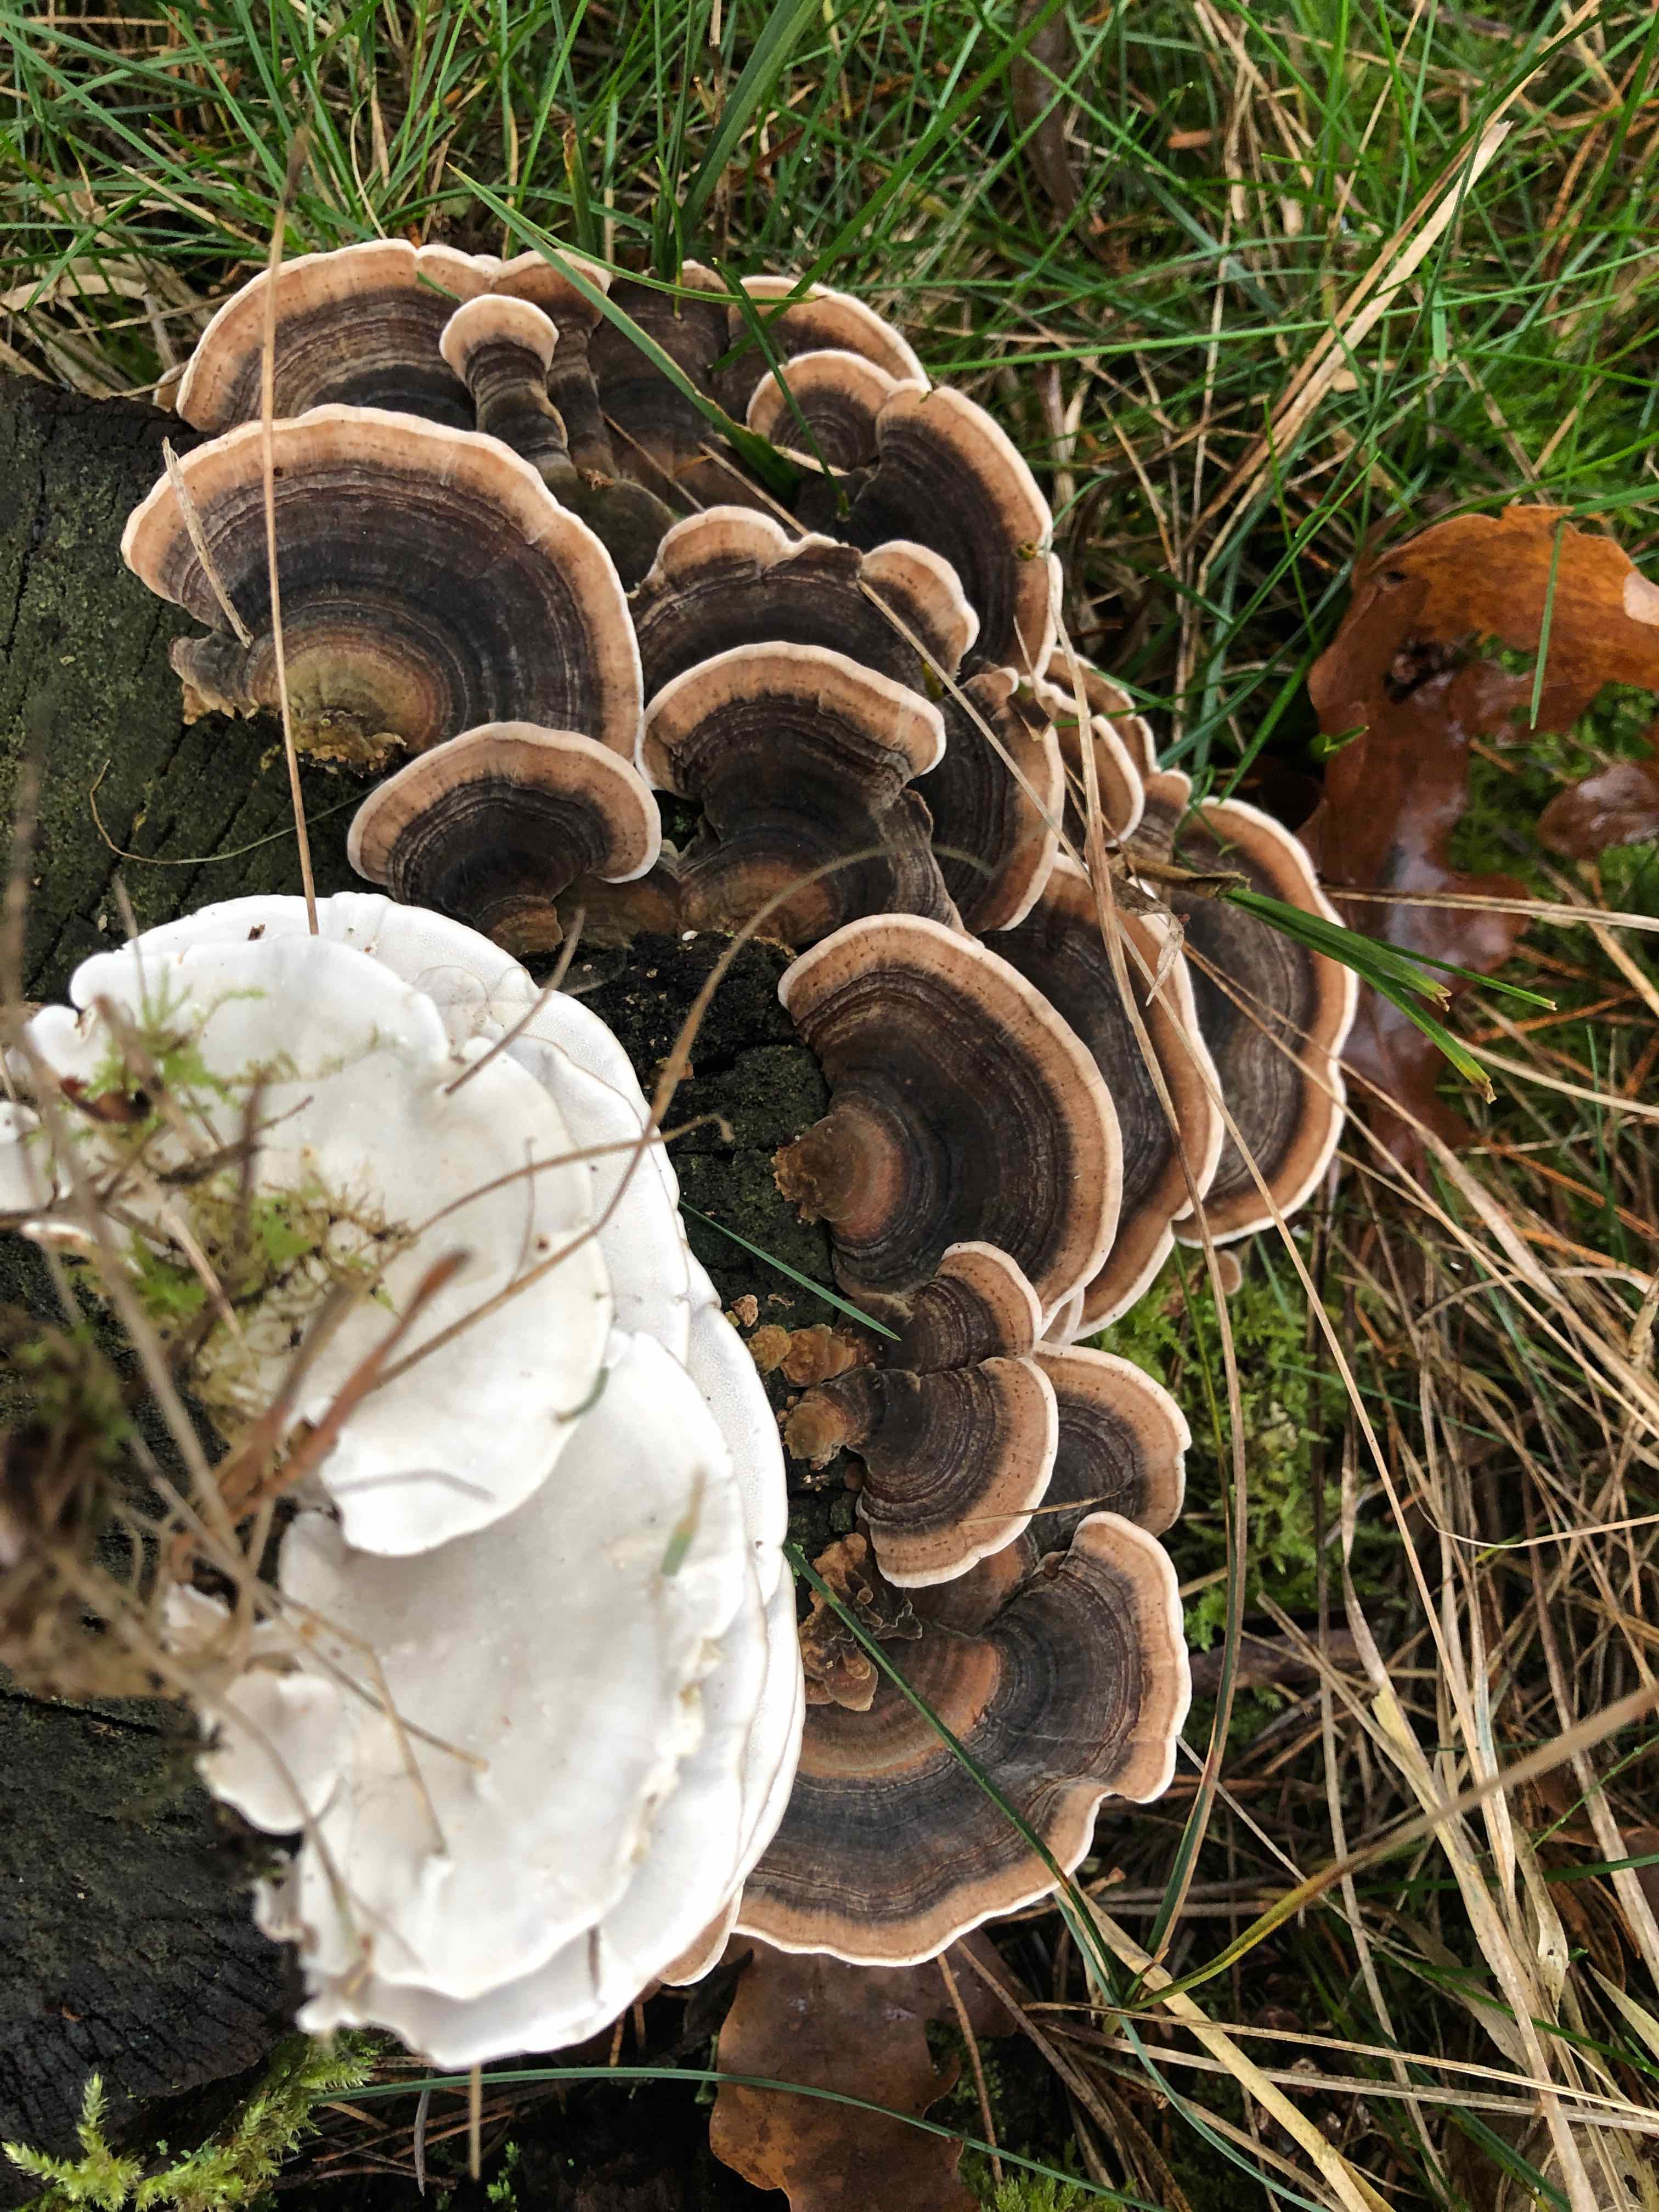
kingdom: Fungi
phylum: Basidiomycota
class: Agaricomycetes
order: Polyporales
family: Polyporaceae
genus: Trametes
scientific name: Trametes versicolor
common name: broget læderporesvamp
